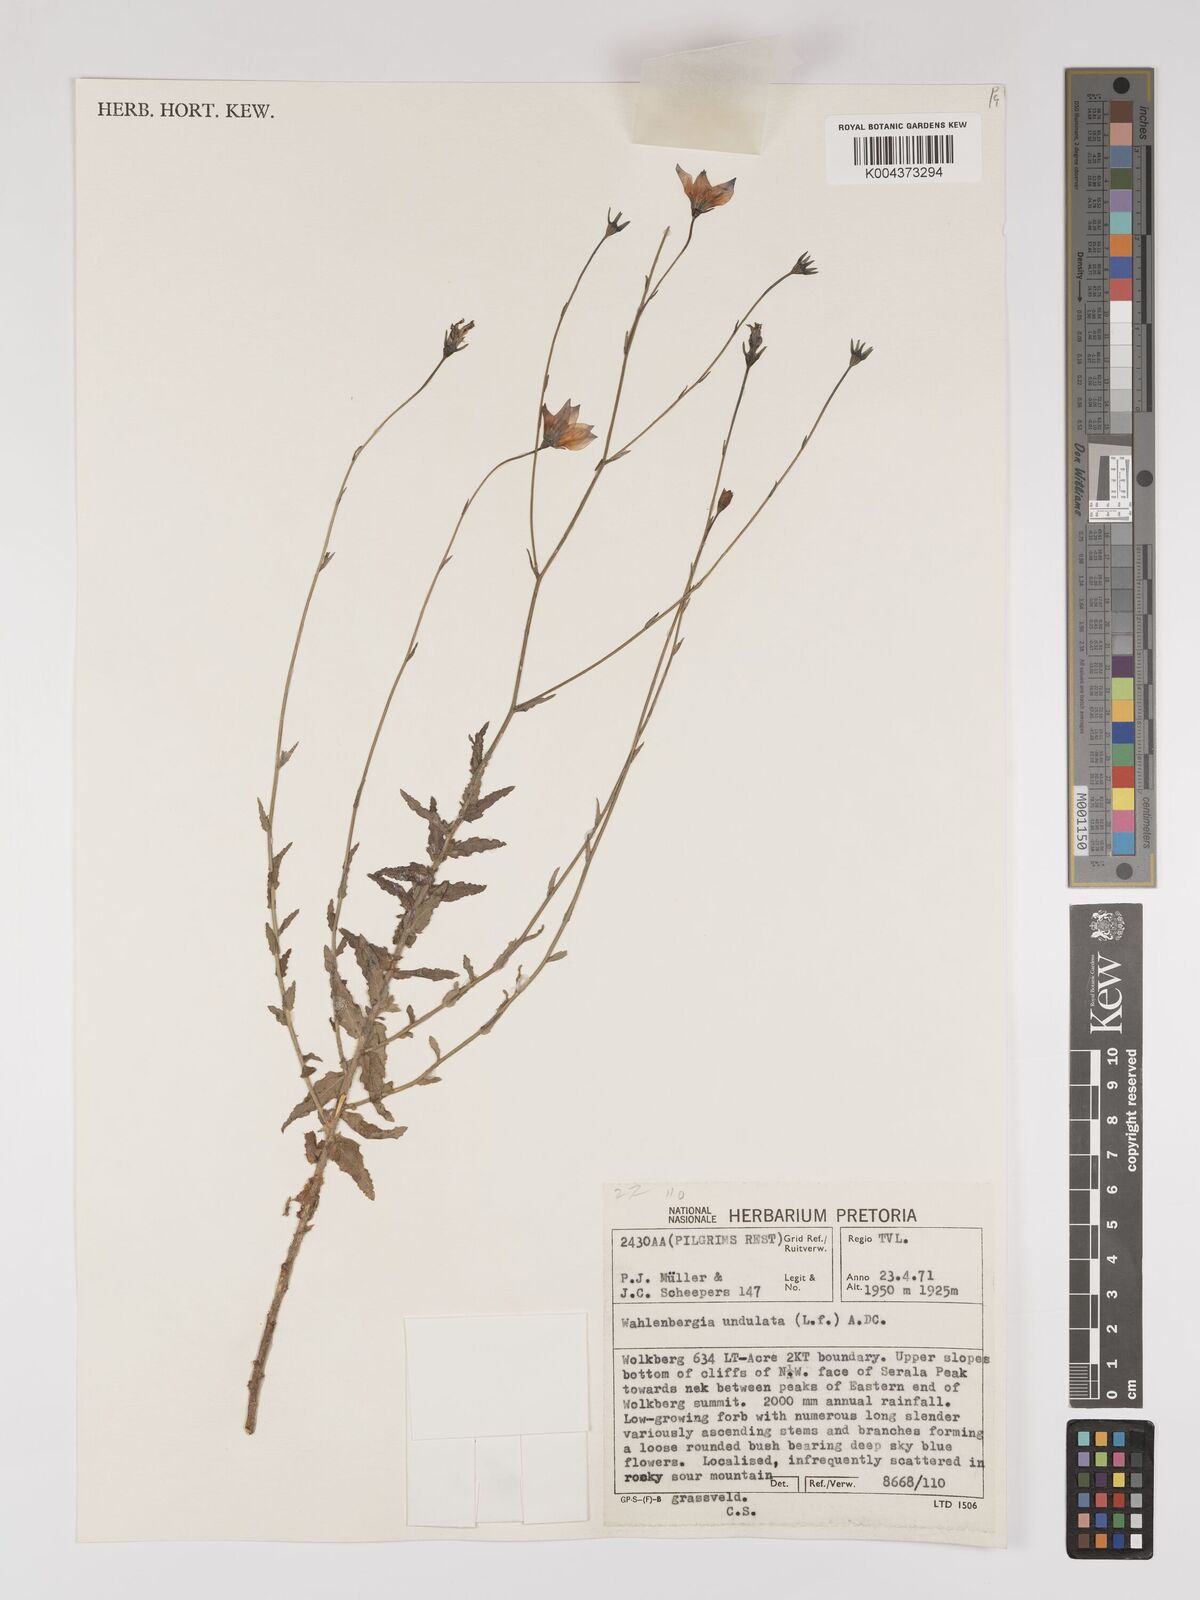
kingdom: Plantae
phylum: Tracheophyta
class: Magnoliopsida
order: Asterales
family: Campanulaceae
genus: Wahlenbergia
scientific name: Wahlenbergia undulata
